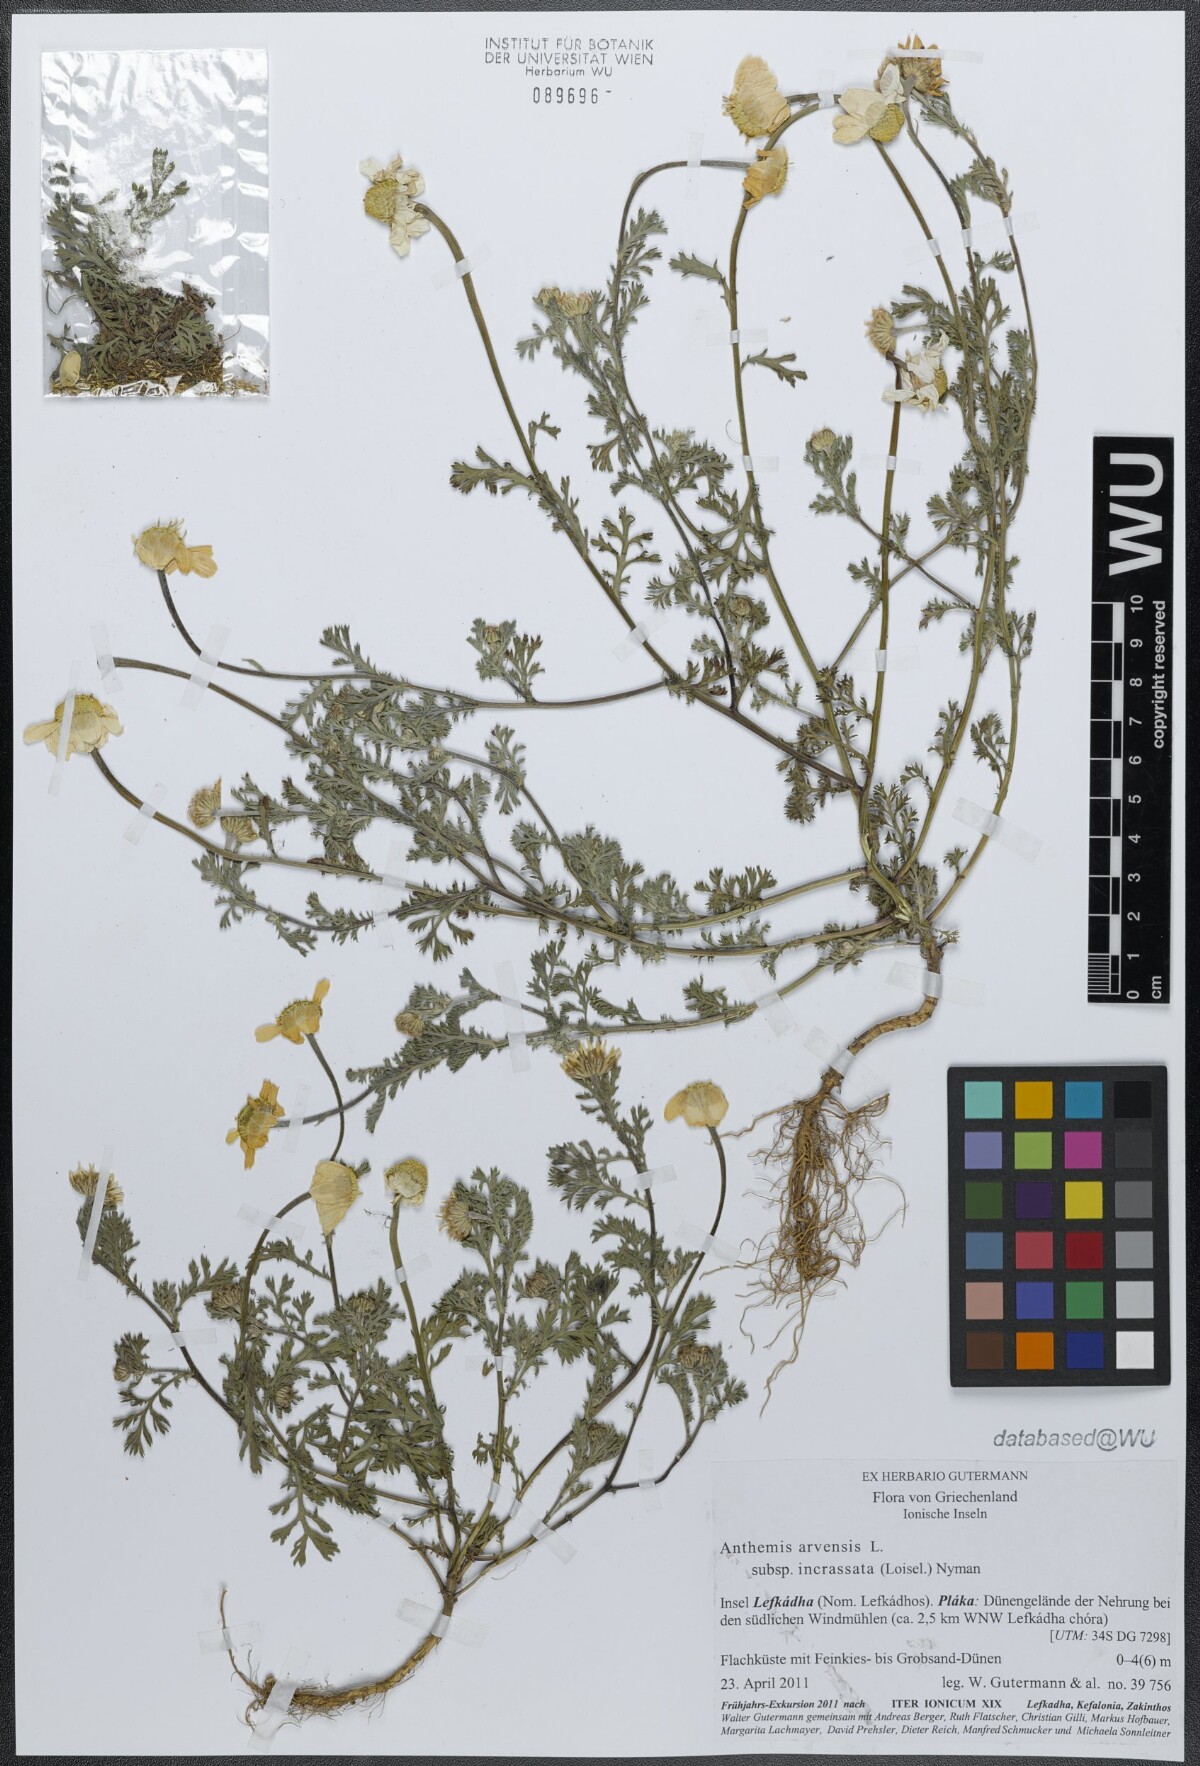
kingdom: Plantae
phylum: Tracheophyta
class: Magnoliopsida
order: Asterales
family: Asteraceae
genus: Anthemis
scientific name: Anthemis arvensis
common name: Corn chamomile
